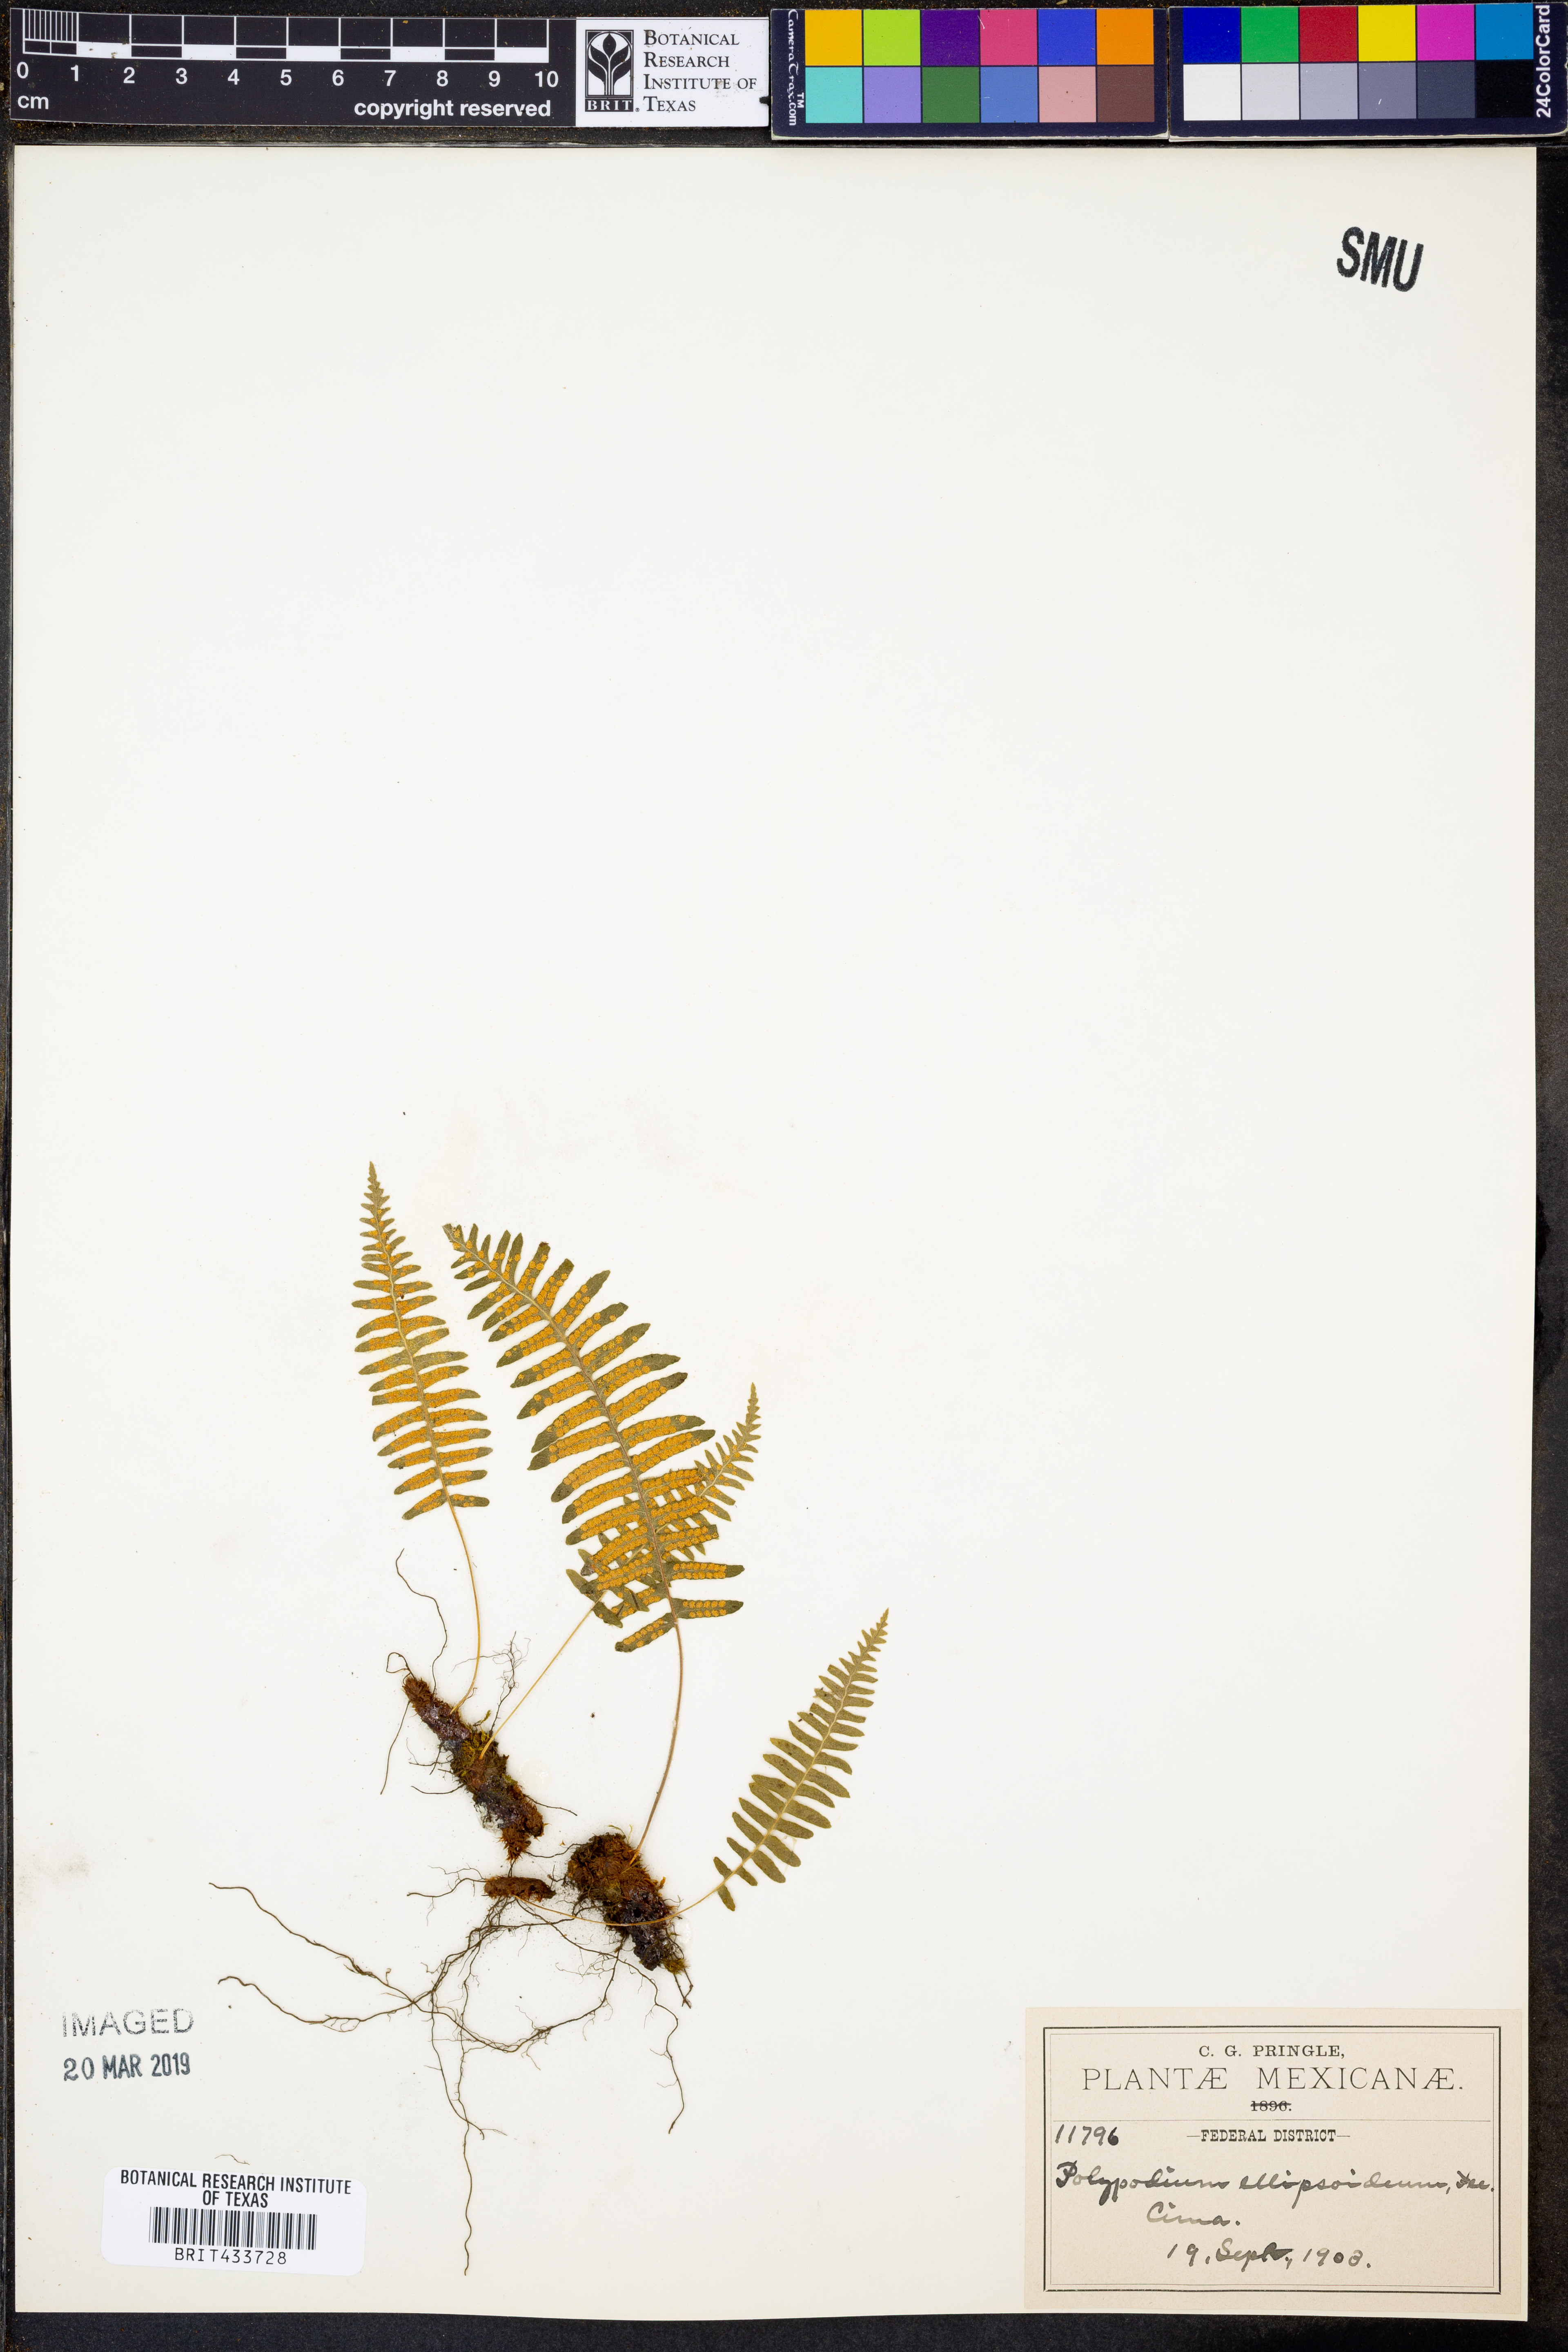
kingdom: Plantae
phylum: Tracheophyta
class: Polypodiopsida
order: Polypodiales
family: Polypodiaceae
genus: Pecluma
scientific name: Pecluma hartwegiana
